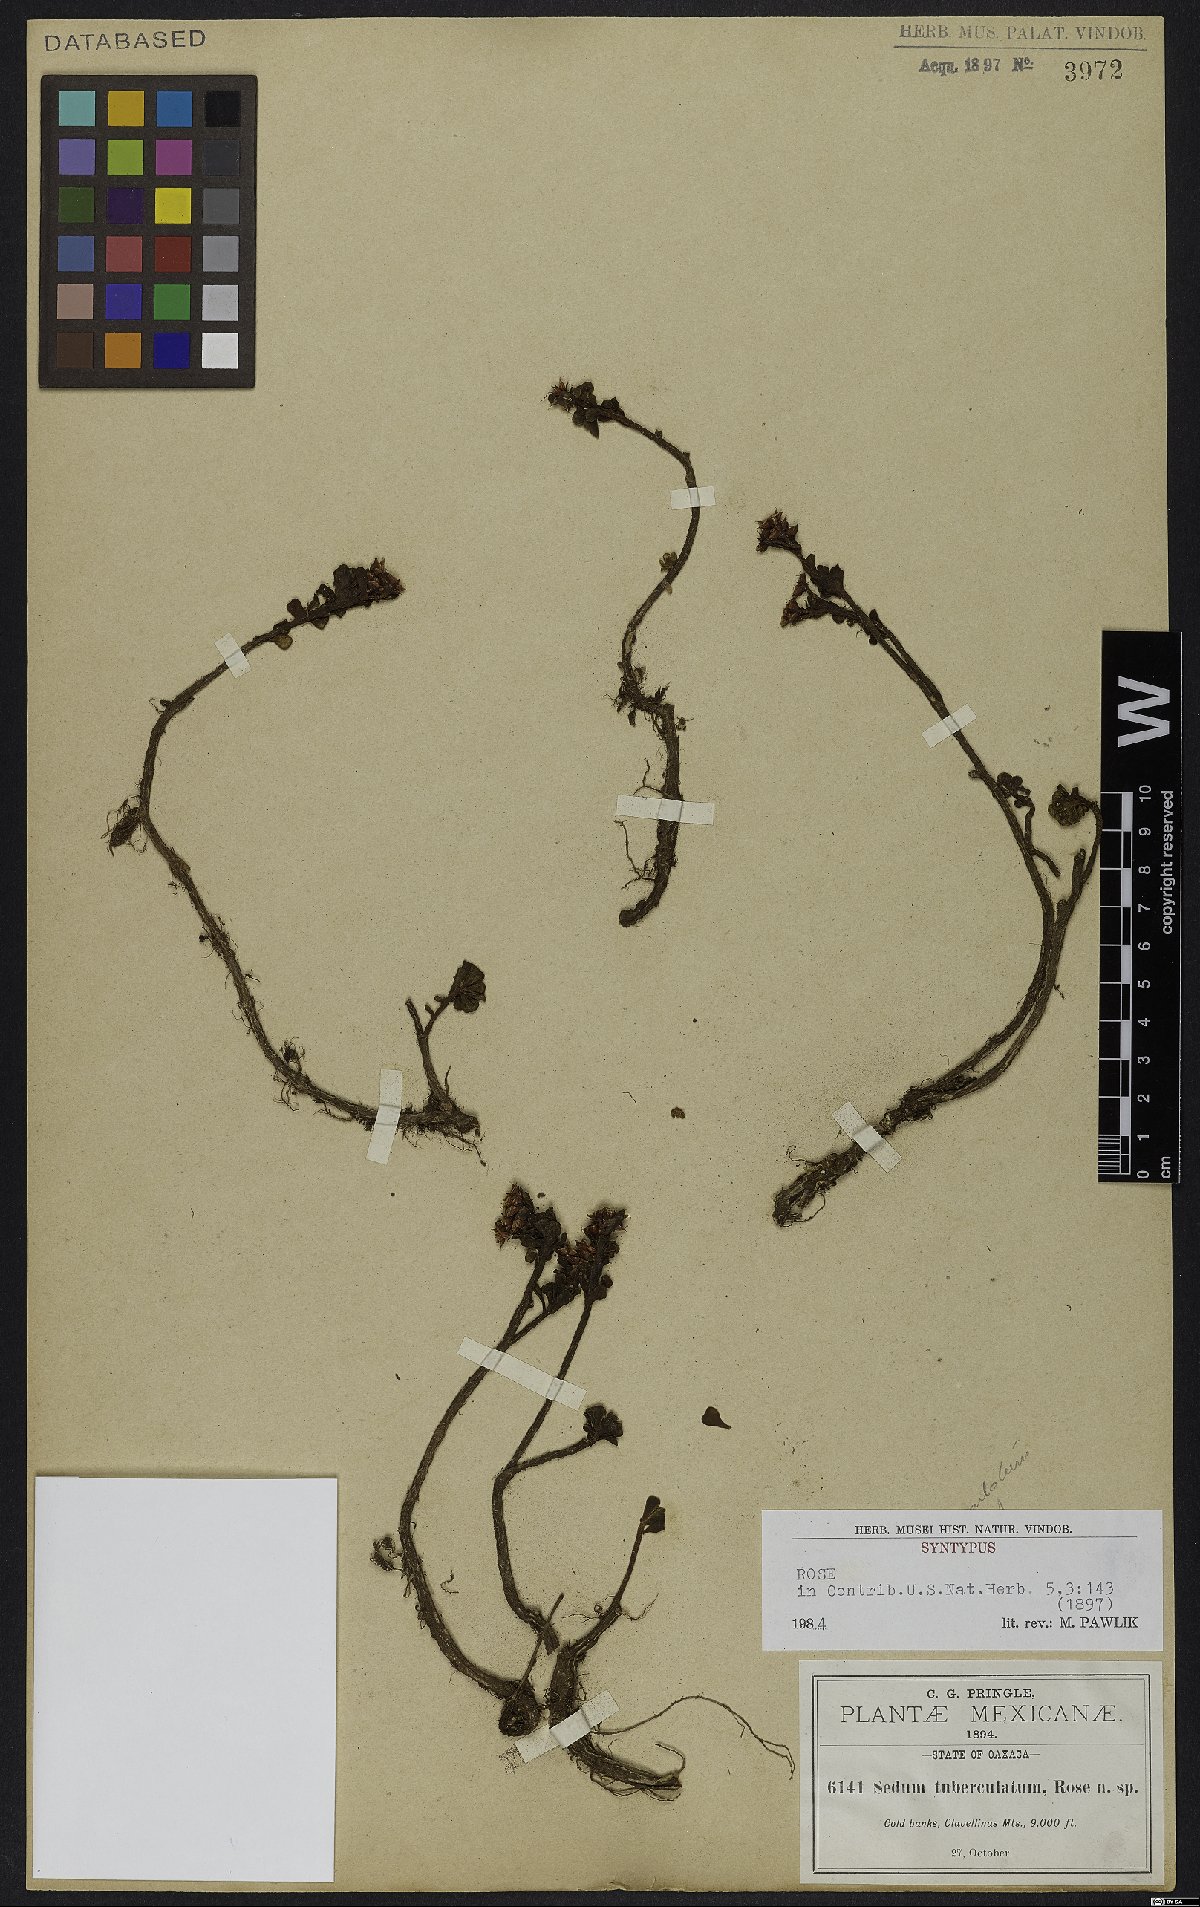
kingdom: Plantae
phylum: Tracheophyta
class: Magnoliopsida
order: Saxifragales
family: Crassulaceae
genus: Sedum
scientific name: Sedum tuberculatum
